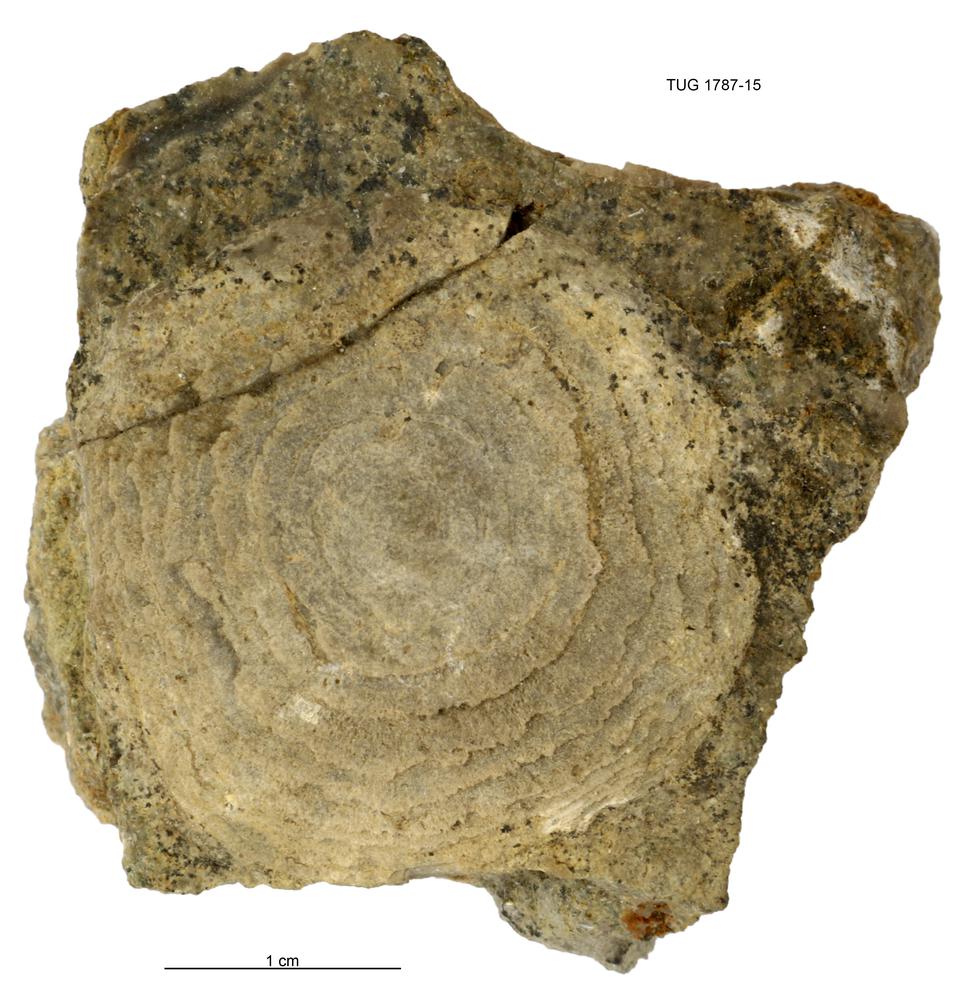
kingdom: Animalia
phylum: Brachiopoda
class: Lingulata
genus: Pseudometoptoma
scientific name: Pseudometoptoma
